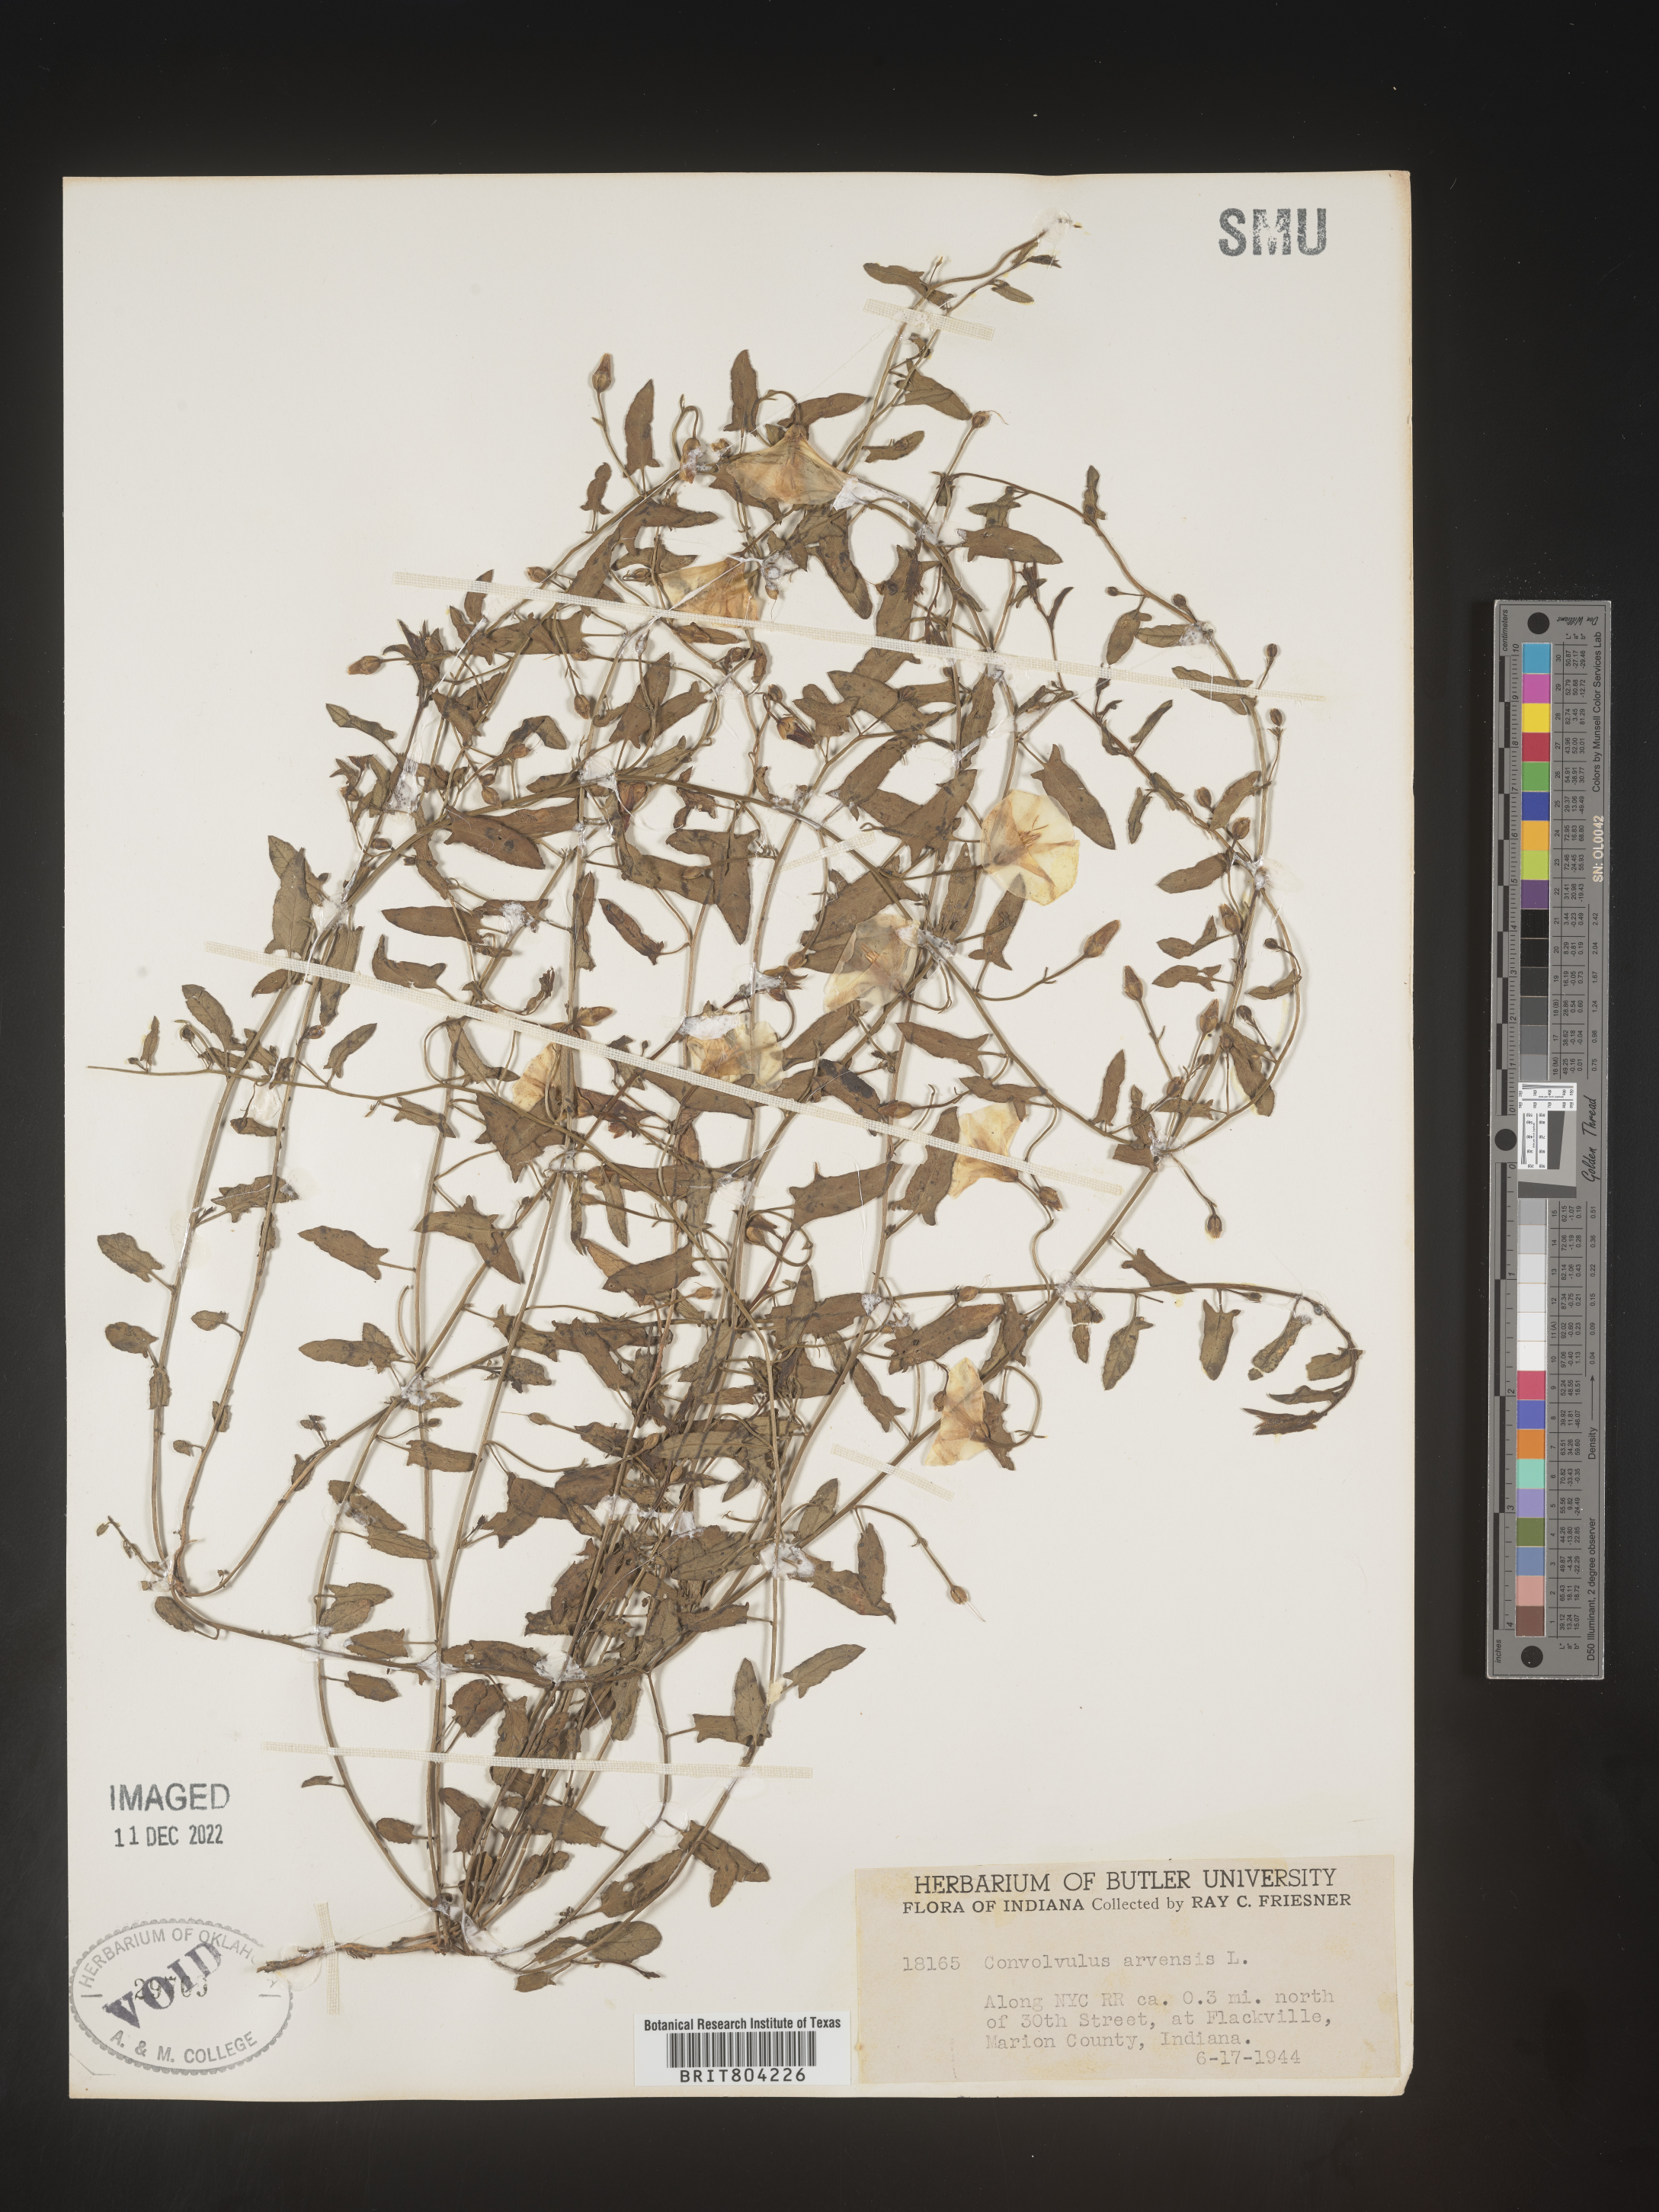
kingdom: Plantae
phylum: Tracheophyta
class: Magnoliopsida
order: Solanales
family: Convolvulaceae
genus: Convolvulus
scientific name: Convolvulus arvensis
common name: Field bindweed
